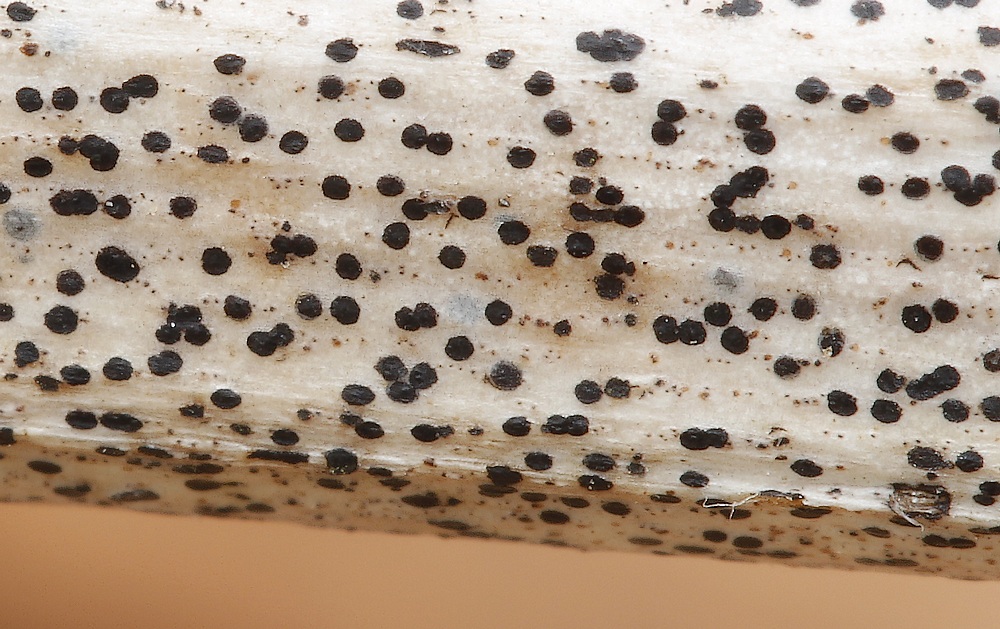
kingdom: Fungi
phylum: Ascomycota
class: Leotiomycetes
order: Rhytismatales
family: Rhytismataceae
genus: Hypoderma
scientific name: Hypoderma rubi
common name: brombær-fureplet
